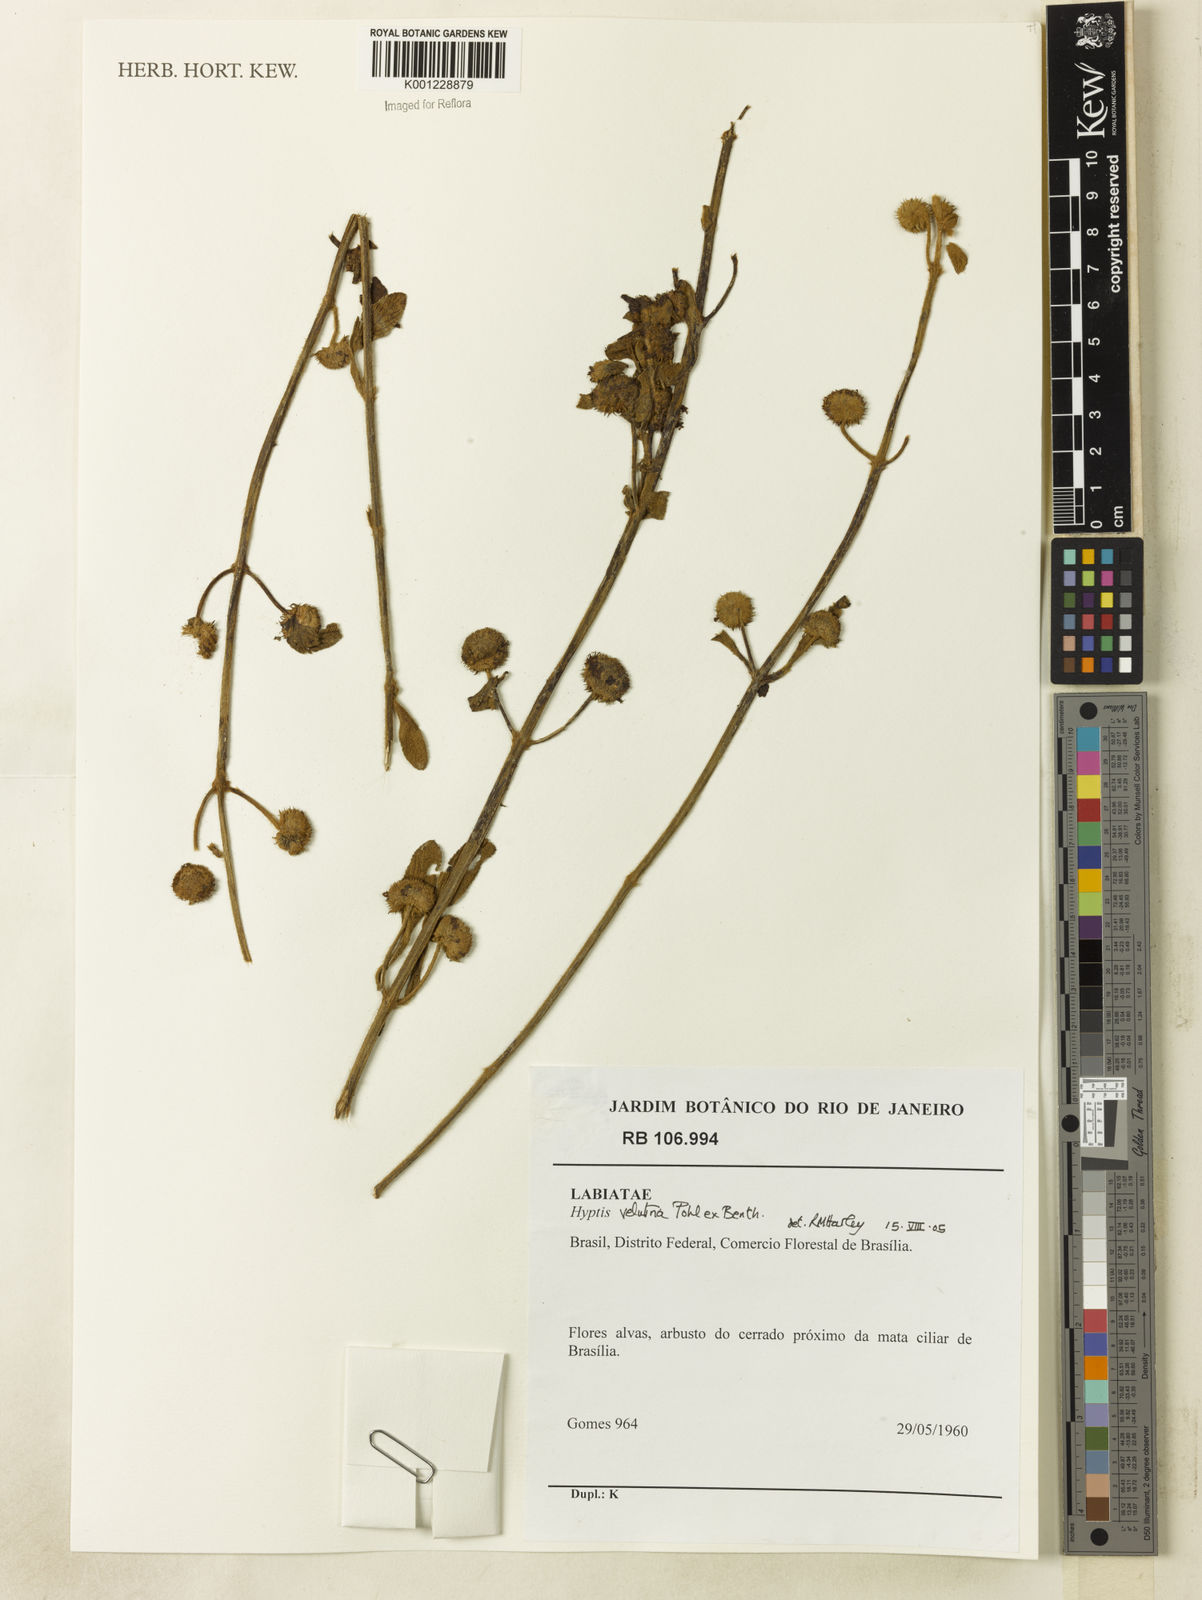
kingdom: Plantae
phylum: Tracheophyta
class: Magnoliopsida
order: Lamiales
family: Lamiaceae
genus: Hyptis
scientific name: Hyptis velutina
